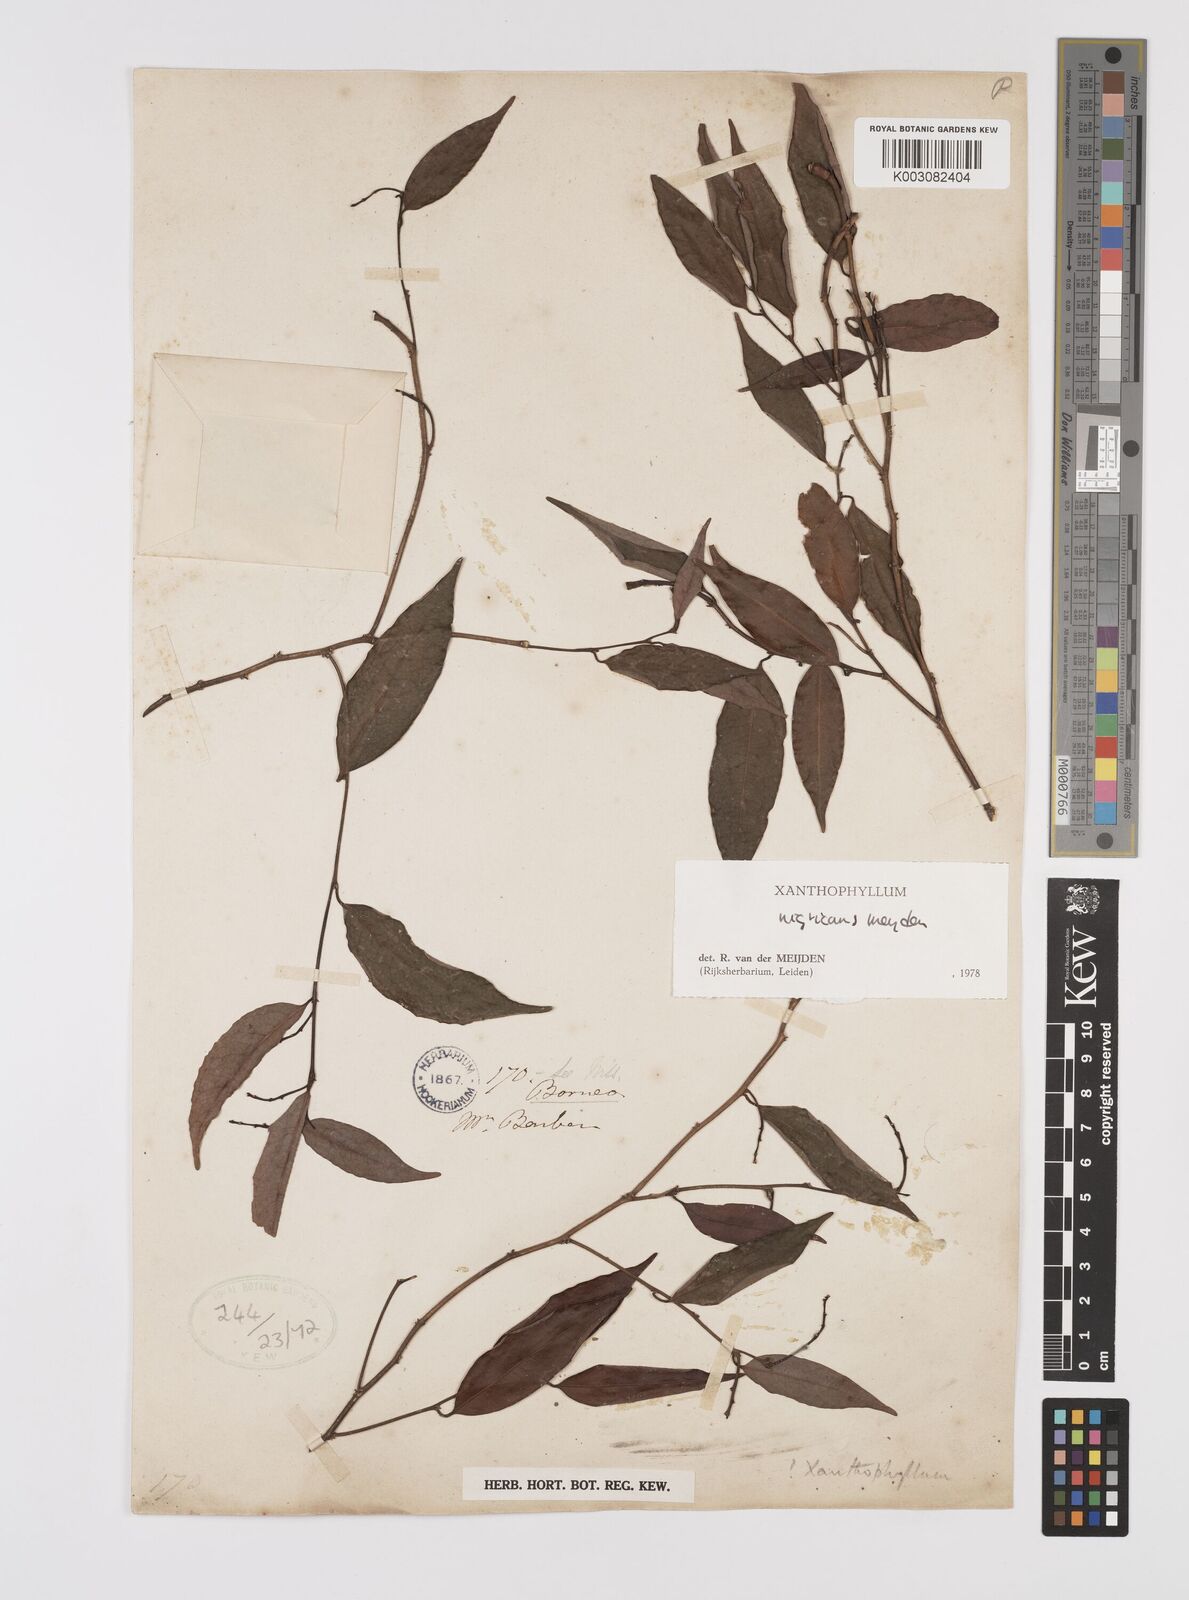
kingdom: Plantae
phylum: Tracheophyta
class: Magnoliopsida
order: Fabales
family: Polygalaceae
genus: Xanthophyllum
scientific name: Xanthophyllum nigricans
